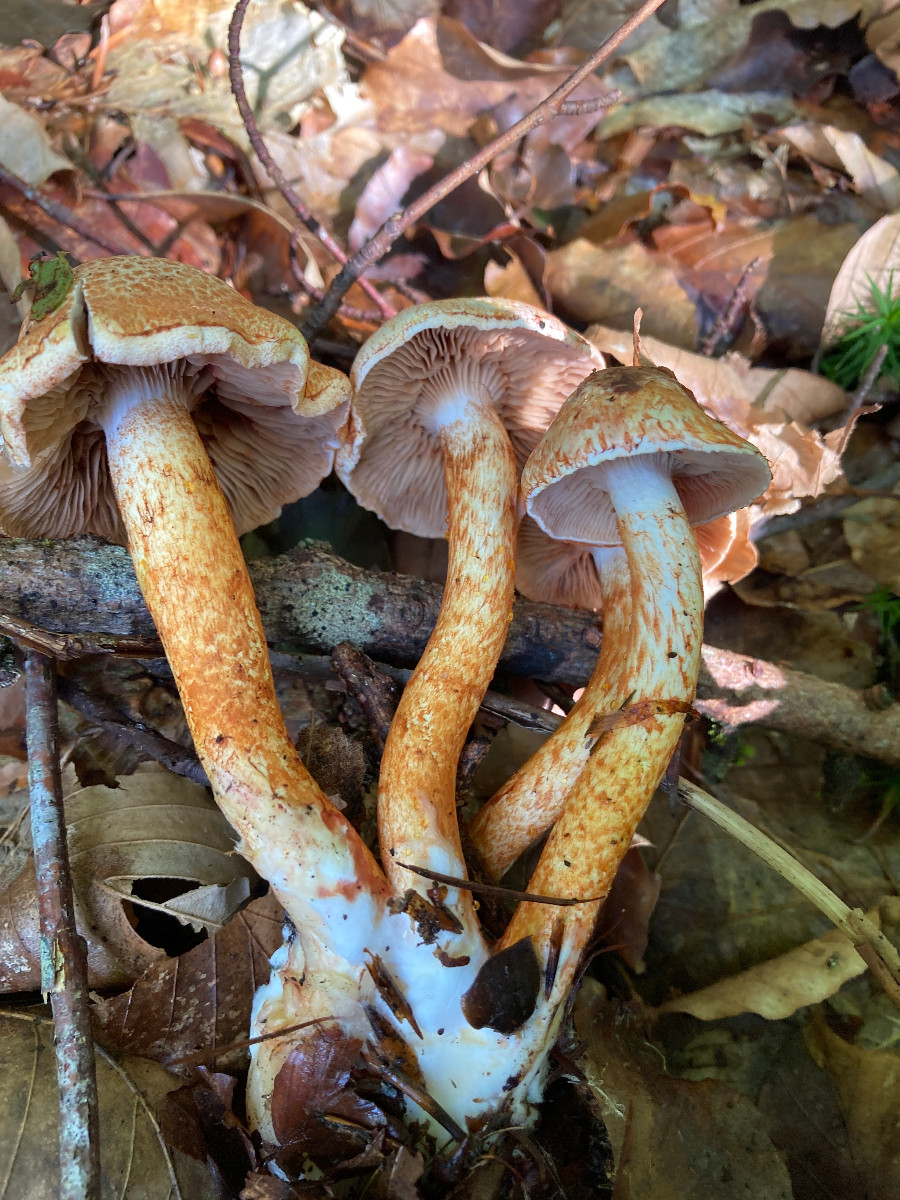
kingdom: Fungi
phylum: Basidiomycota
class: Agaricomycetes
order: Agaricales
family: Cortinariaceae
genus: Cortinarius
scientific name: Cortinarius bolaris
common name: cinnoberskællet slørhat
